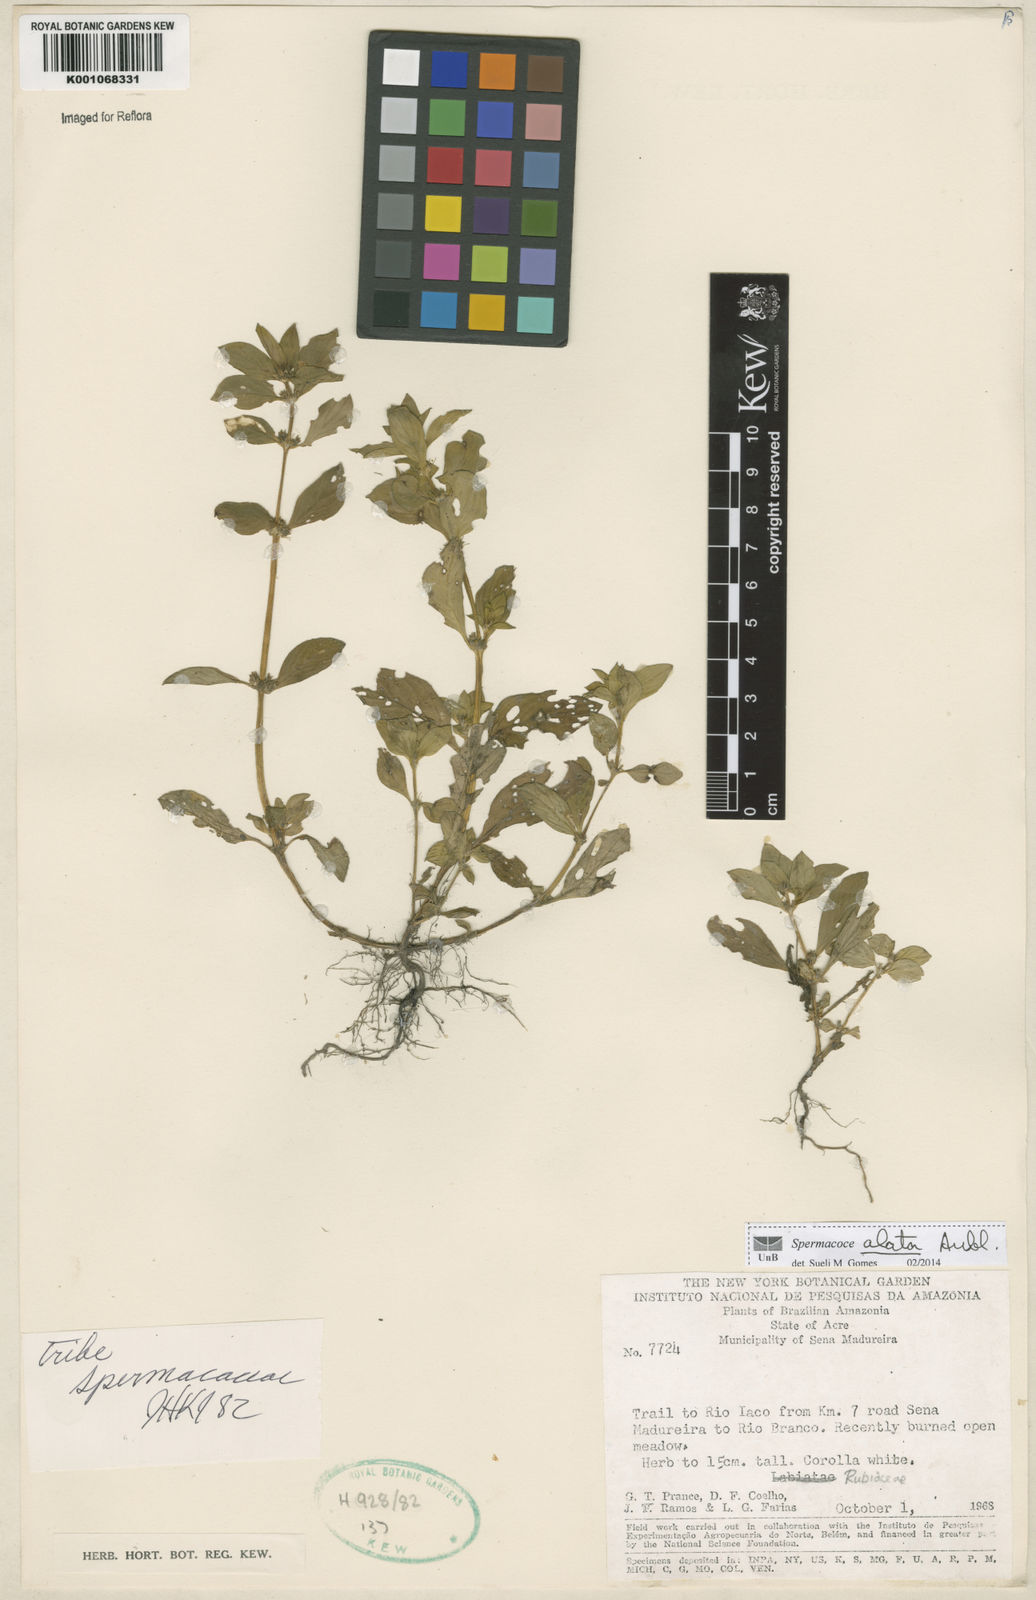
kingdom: Plantae
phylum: Tracheophyta
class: Magnoliopsida
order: Gentianales
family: Rubiaceae
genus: Spermacoce
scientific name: Spermacoce
